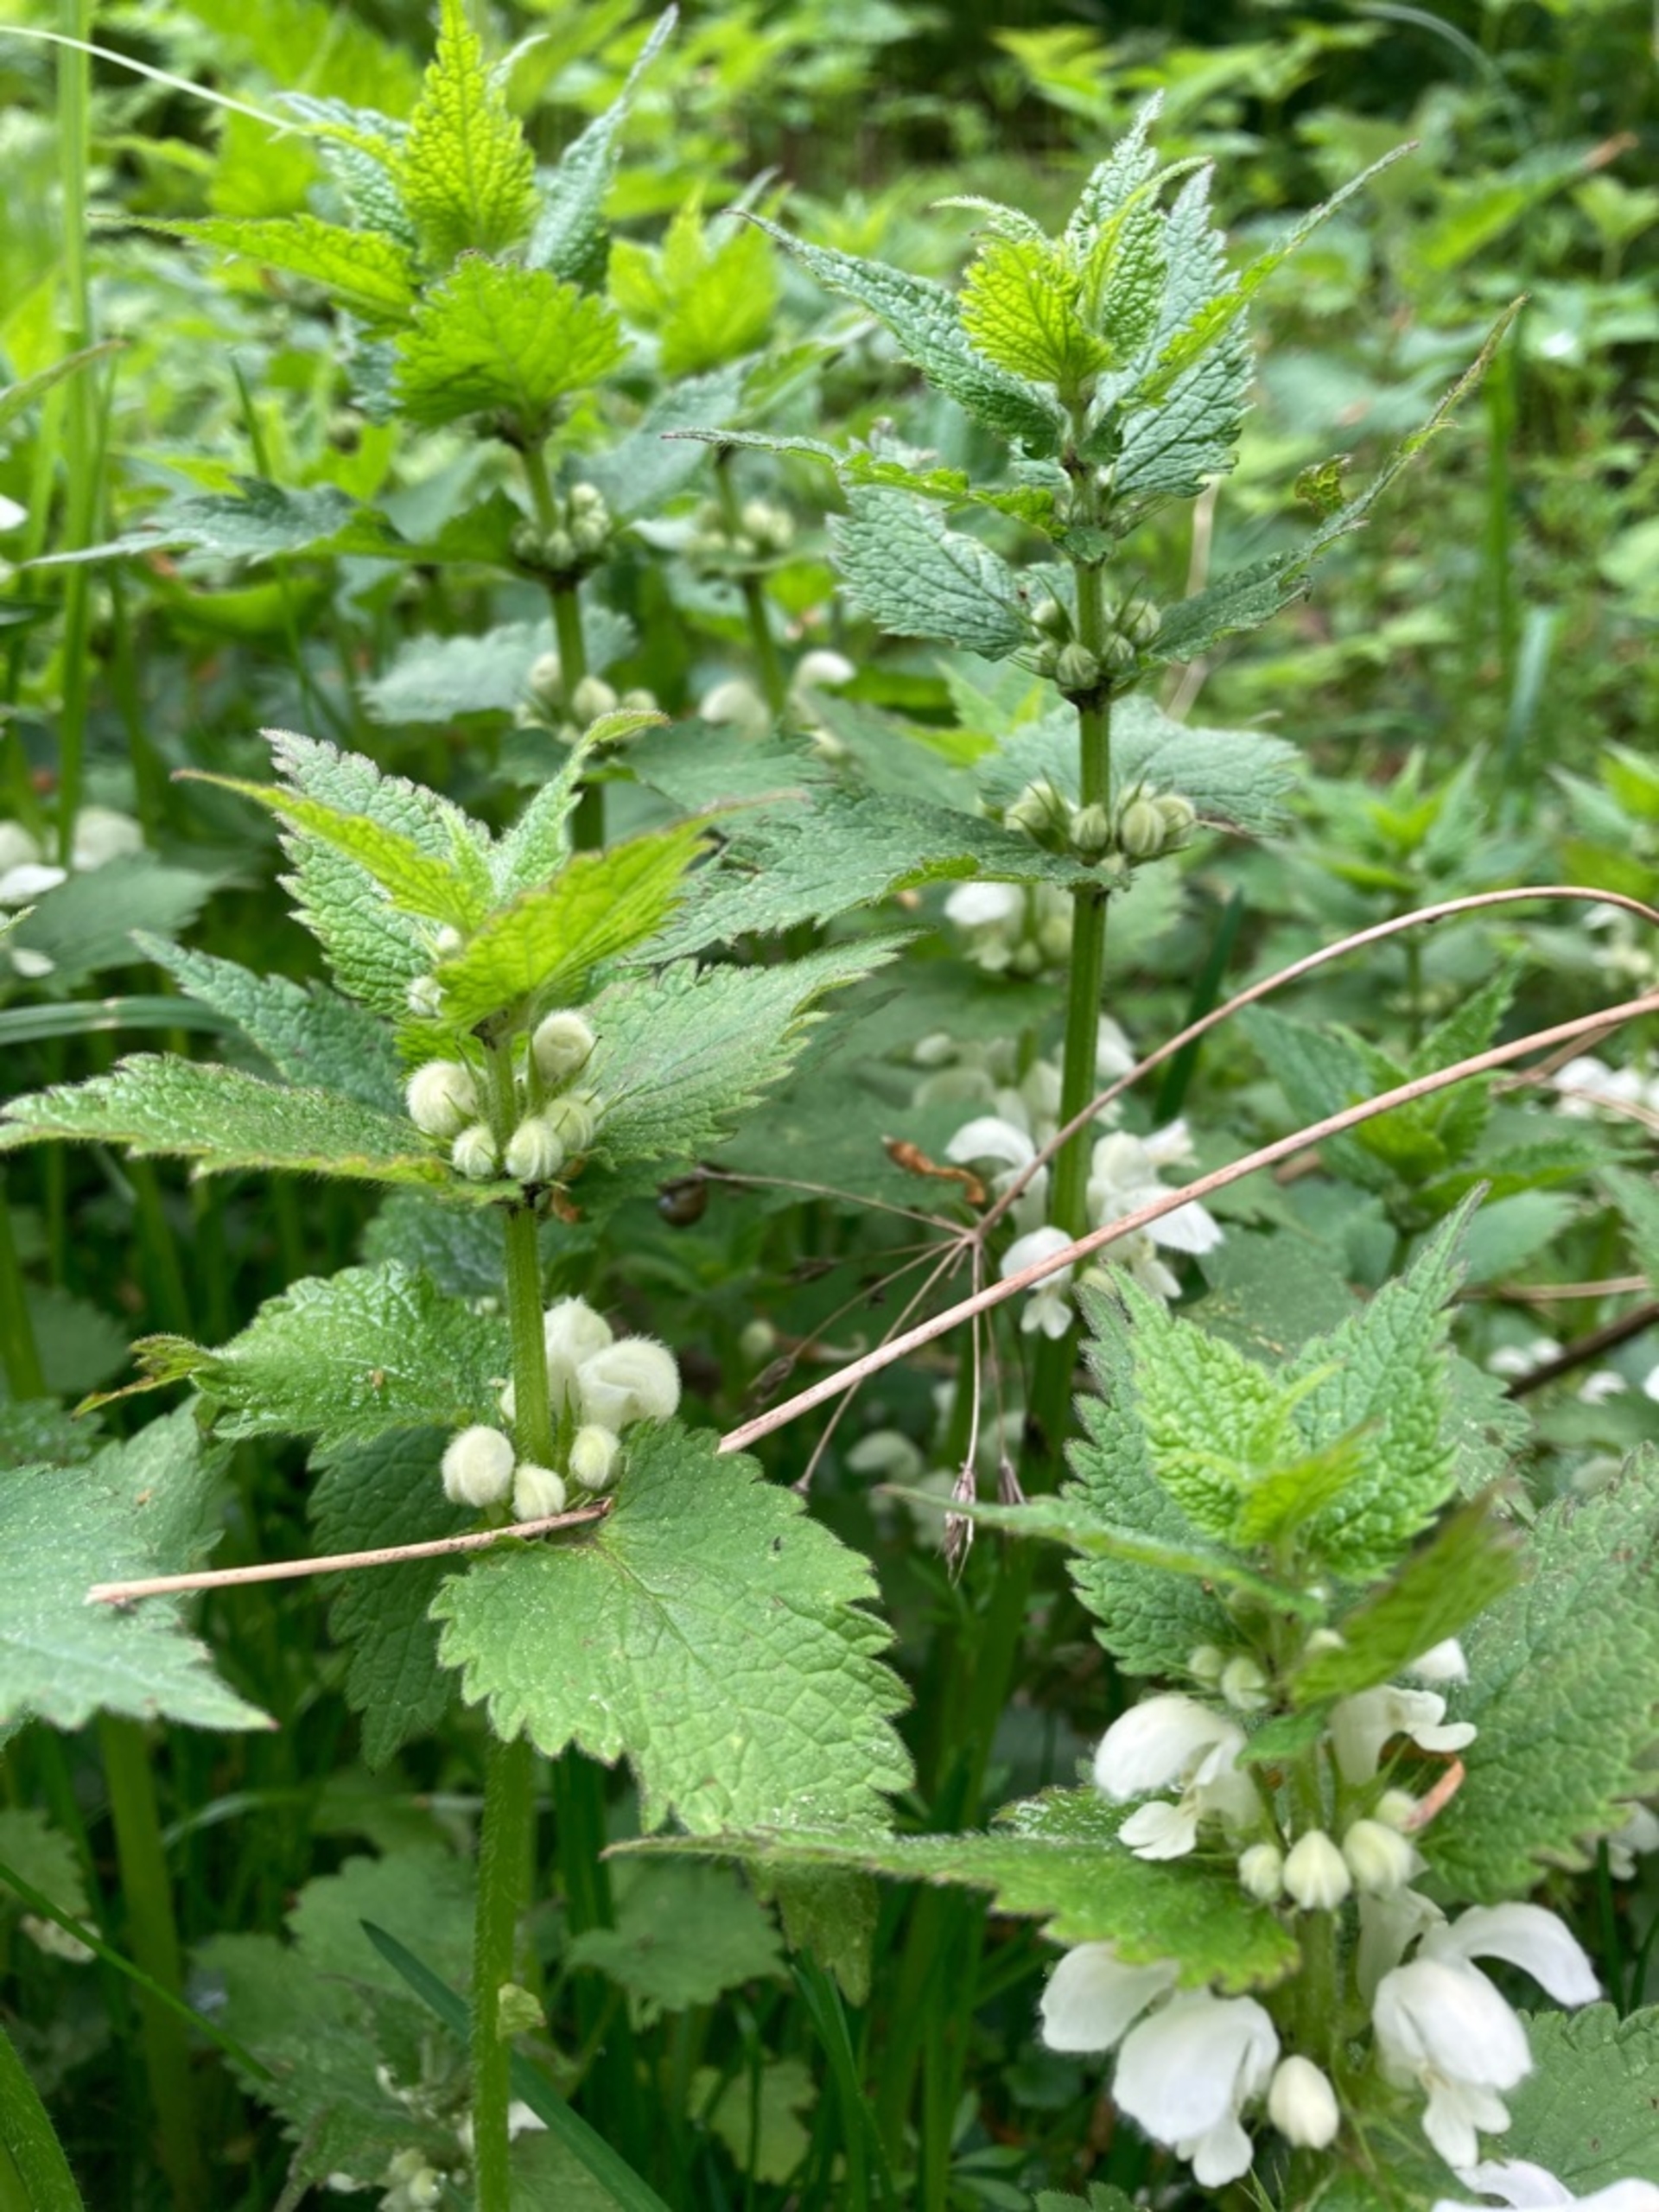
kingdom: Plantae
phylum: Tracheophyta
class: Magnoliopsida
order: Lamiales
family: Lamiaceae
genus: Lamium
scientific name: Lamium album
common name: Døvnælde
